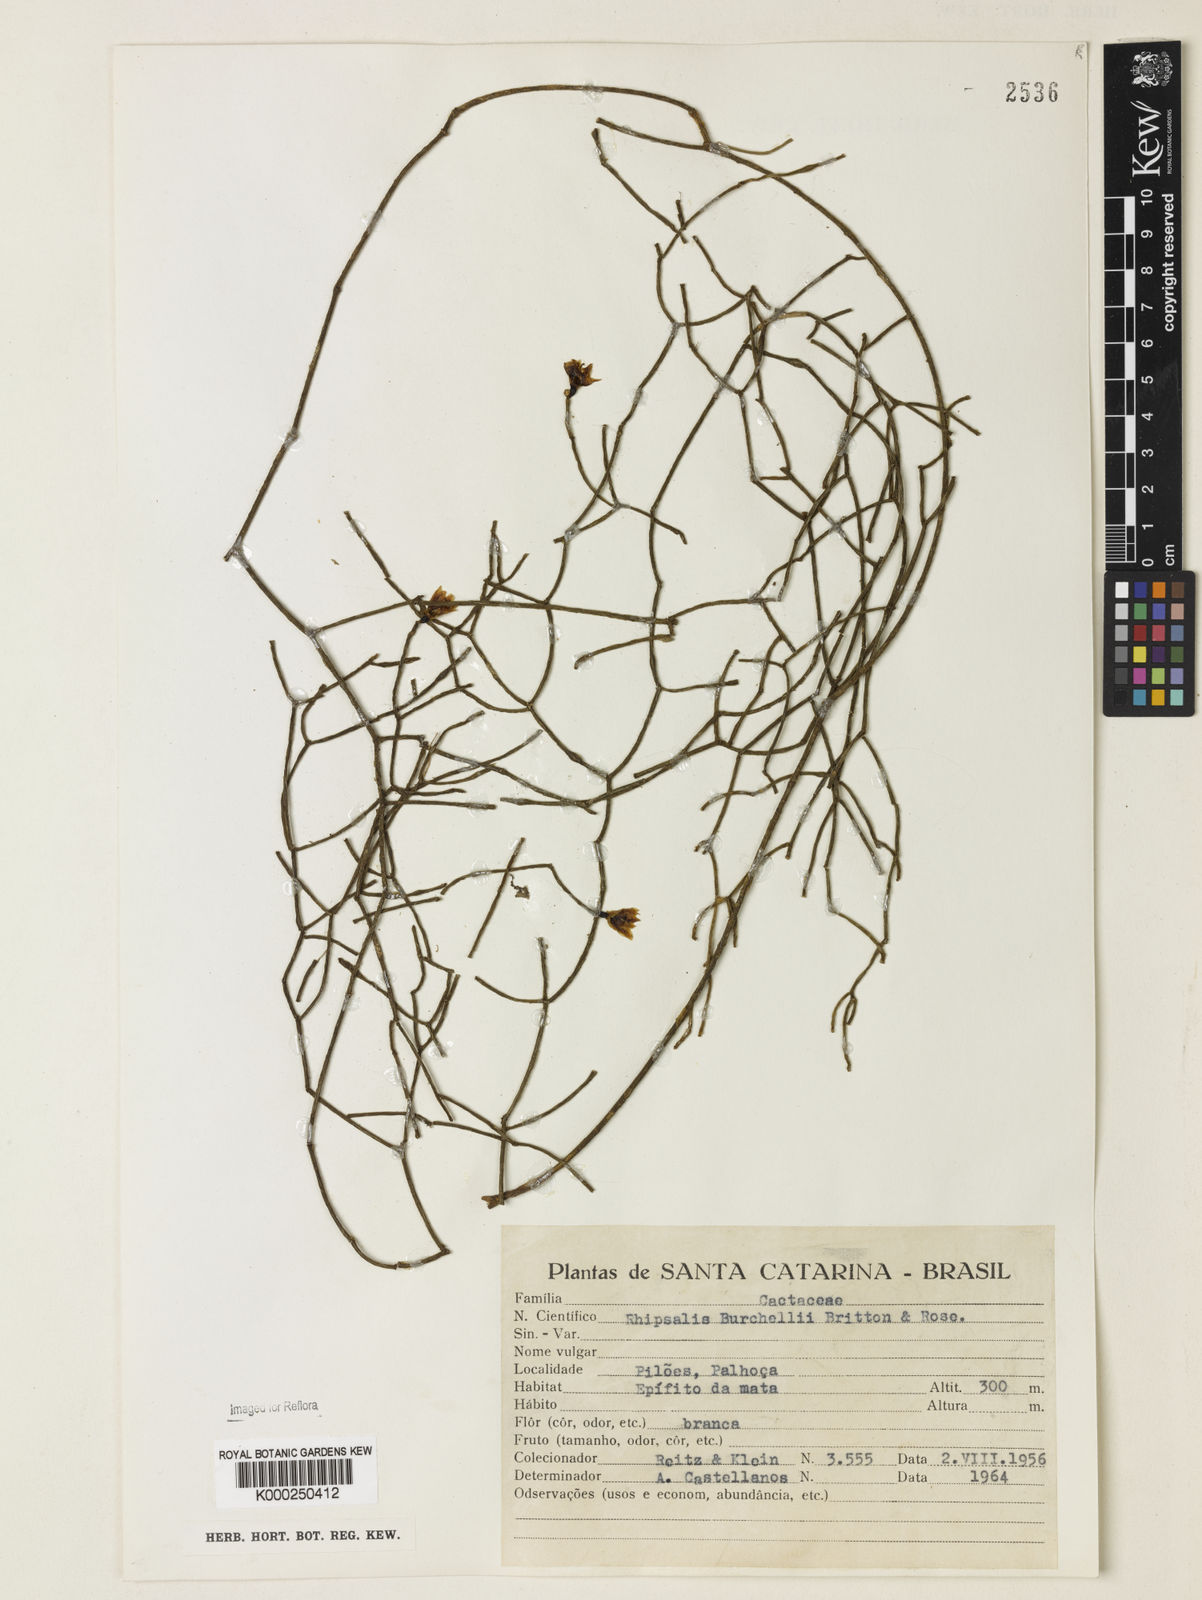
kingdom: Plantae
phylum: Tracheophyta
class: Magnoliopsida
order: Caryophyllales
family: Cactaceae
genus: Rhipsalis
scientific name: Rhipsalis
